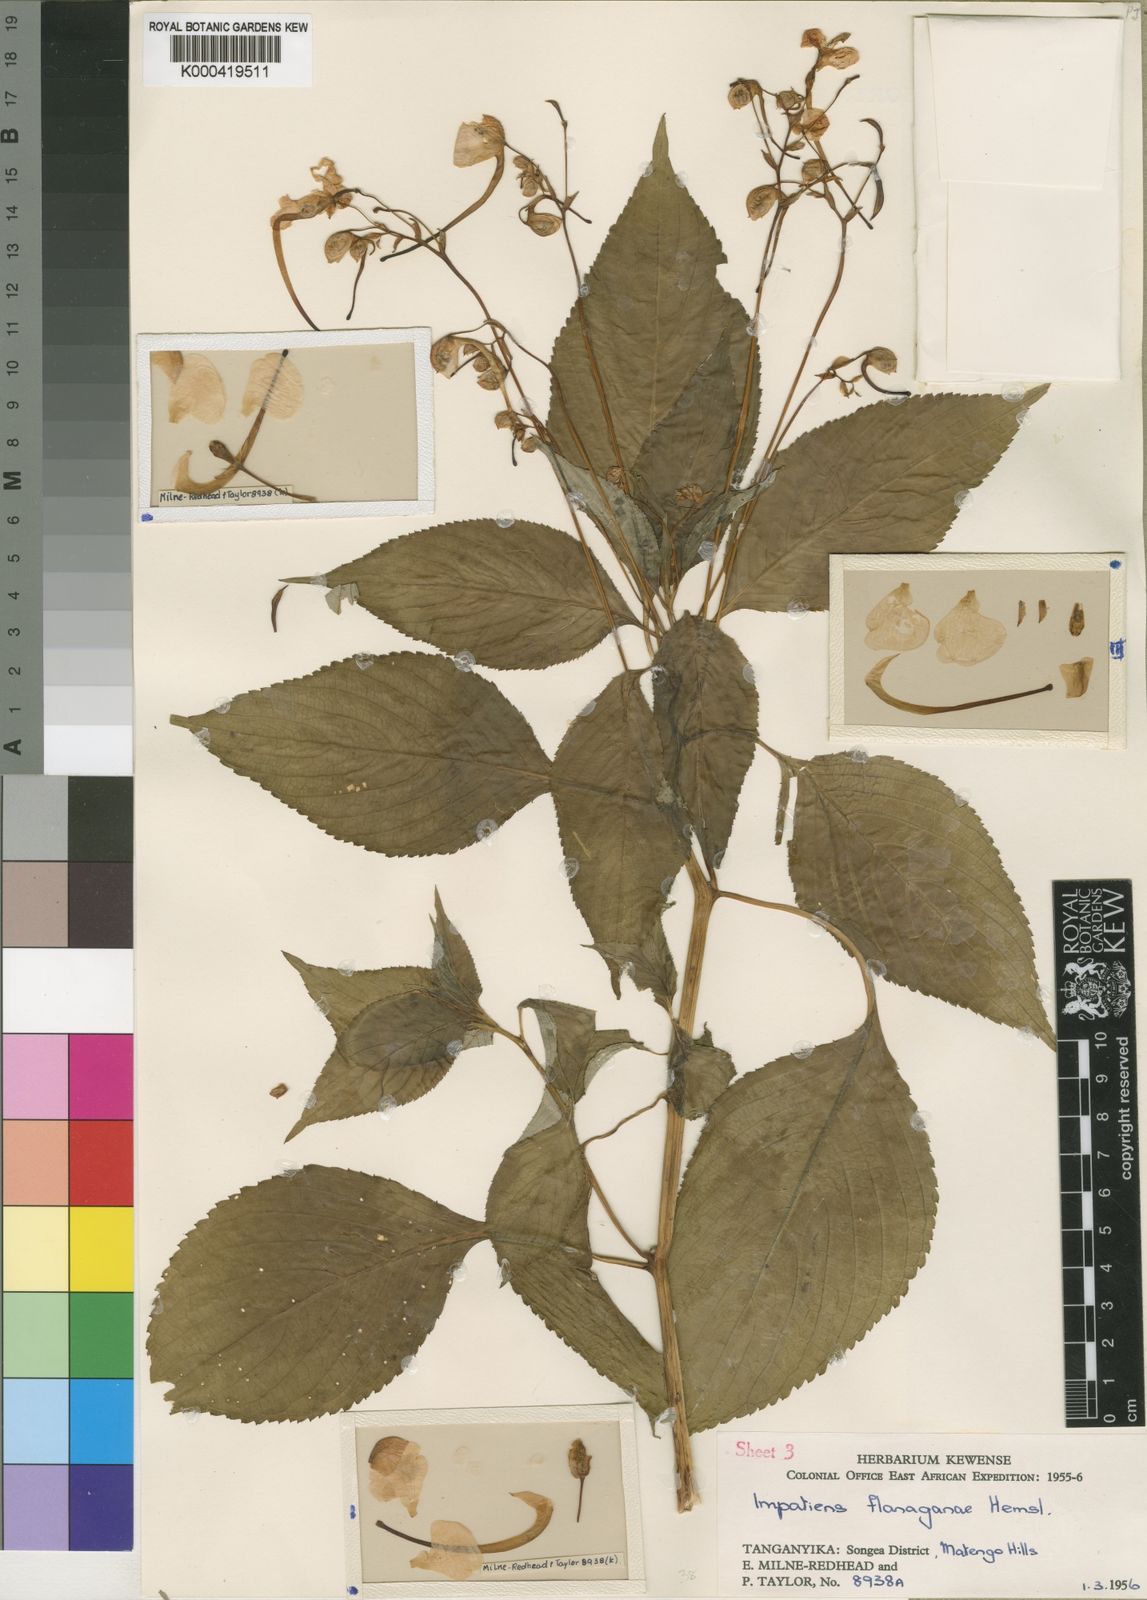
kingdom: Plantae
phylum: Tracheophyta
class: Magnoliopsida
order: Ericales
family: Balsaminaceae
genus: Impatiens
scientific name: Impatiens flanaganiae
